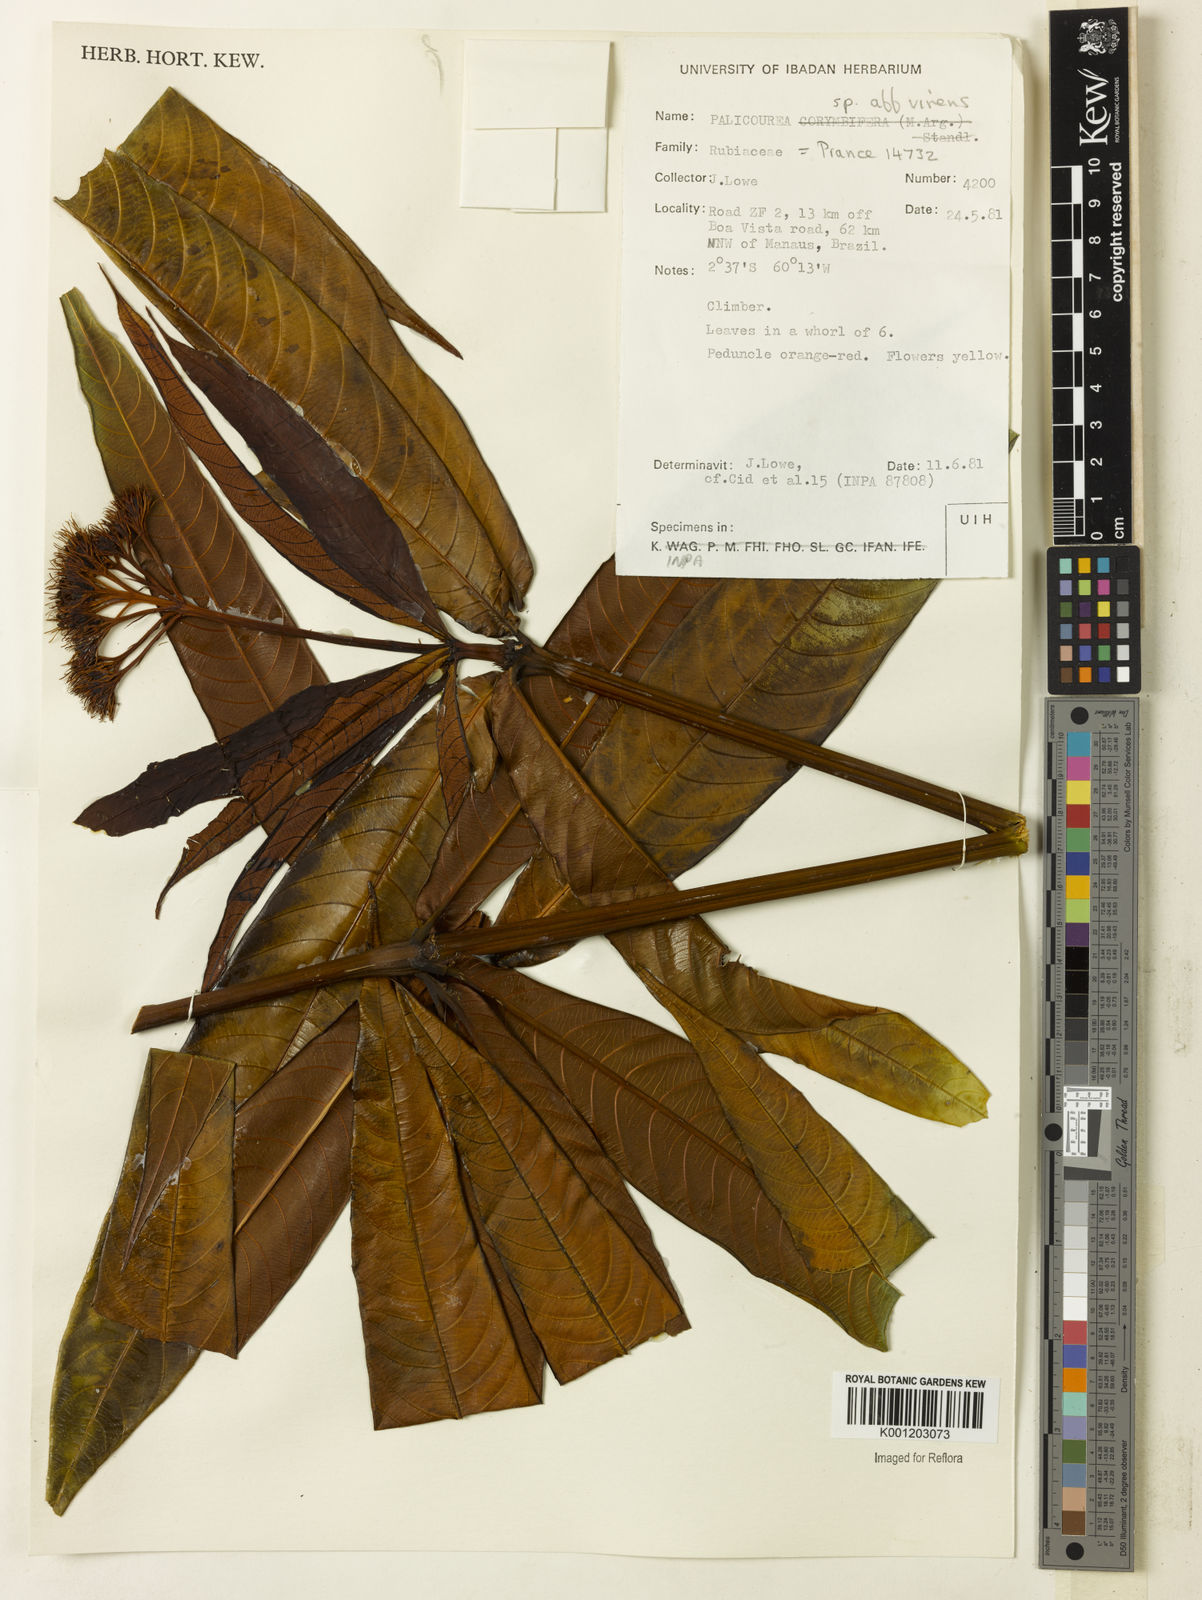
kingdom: Plantae
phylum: Tracheophyta
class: Magnoliopsida
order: Gentianales
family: Rubiaceae
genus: Palicourea
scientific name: Palicourea virens
